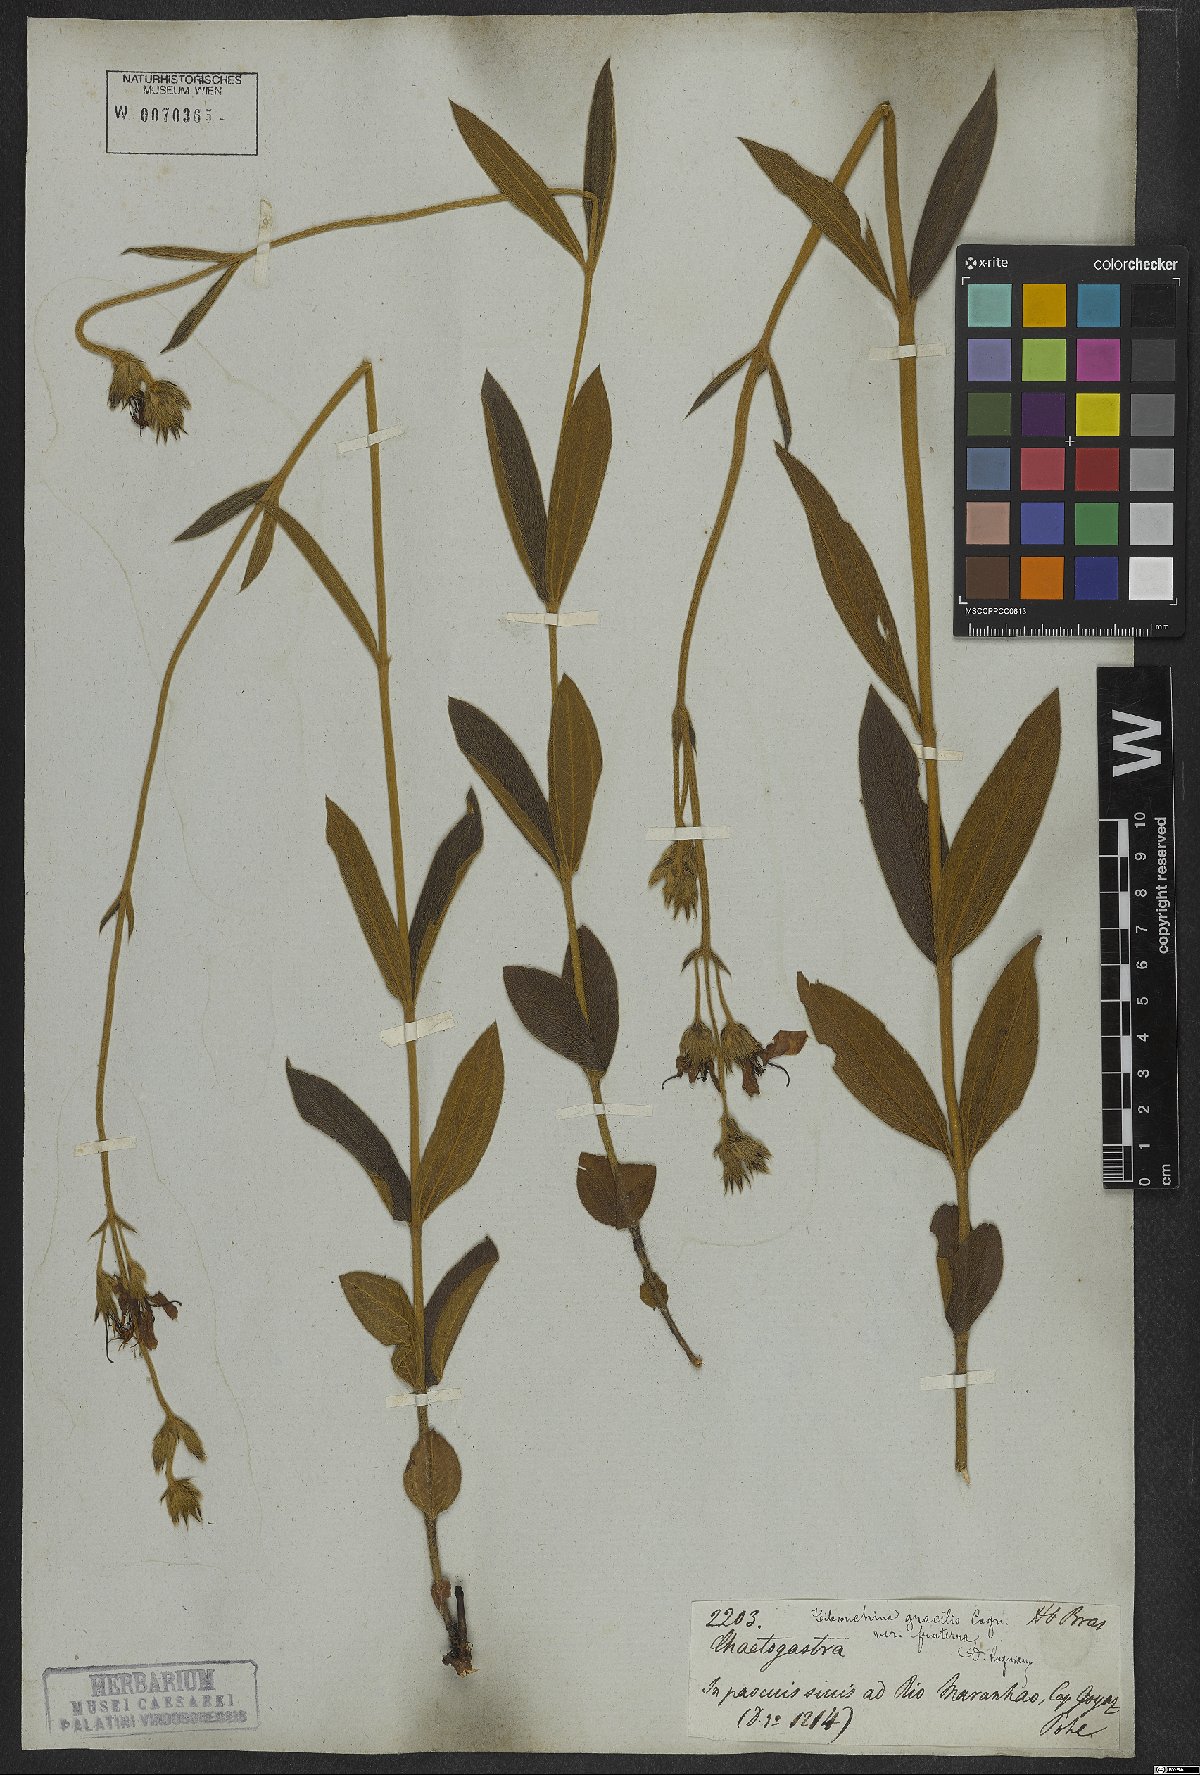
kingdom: Plantae
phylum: Tracheophyta
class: Magnoliopsida
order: Myrtales
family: Melastomataceae
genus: Chaetogastra
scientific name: Chaetogastra gracilis
